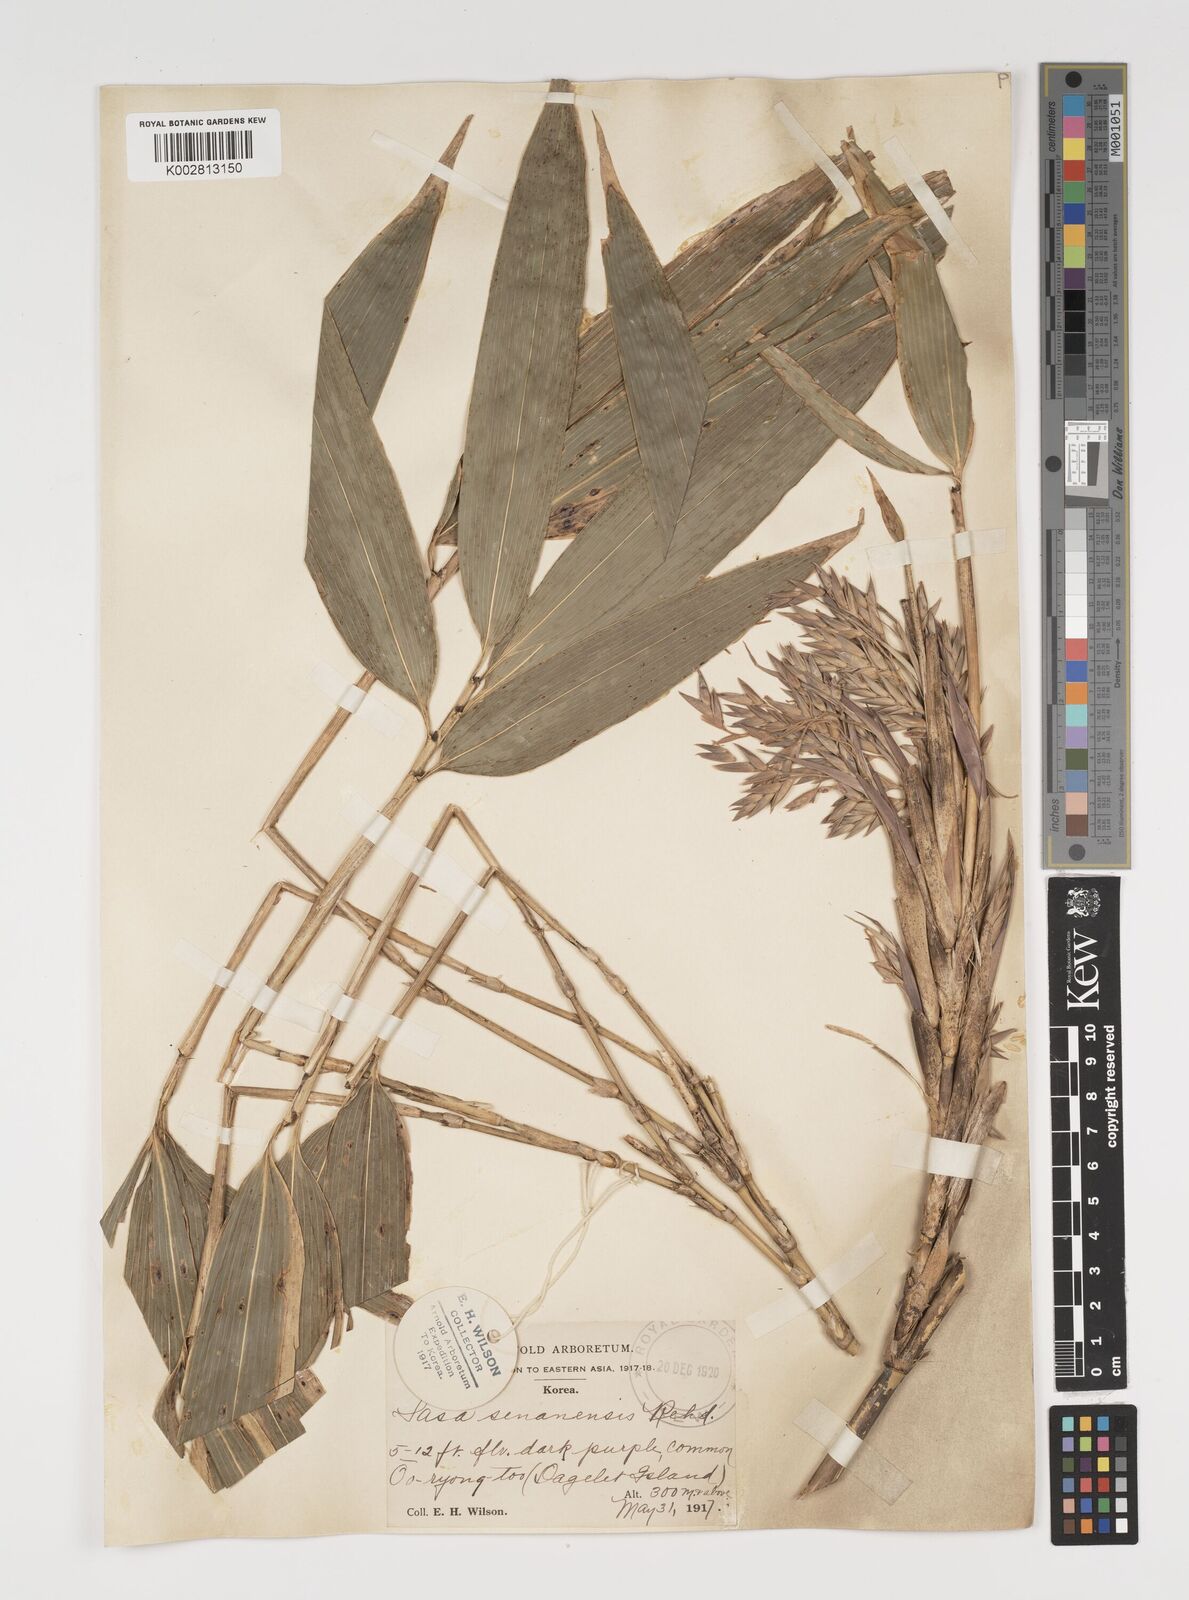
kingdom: Plantae
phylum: Tracheophyta
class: Liliopsida
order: Poales
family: Poaceae
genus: Sasa
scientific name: Sasa senanensis
